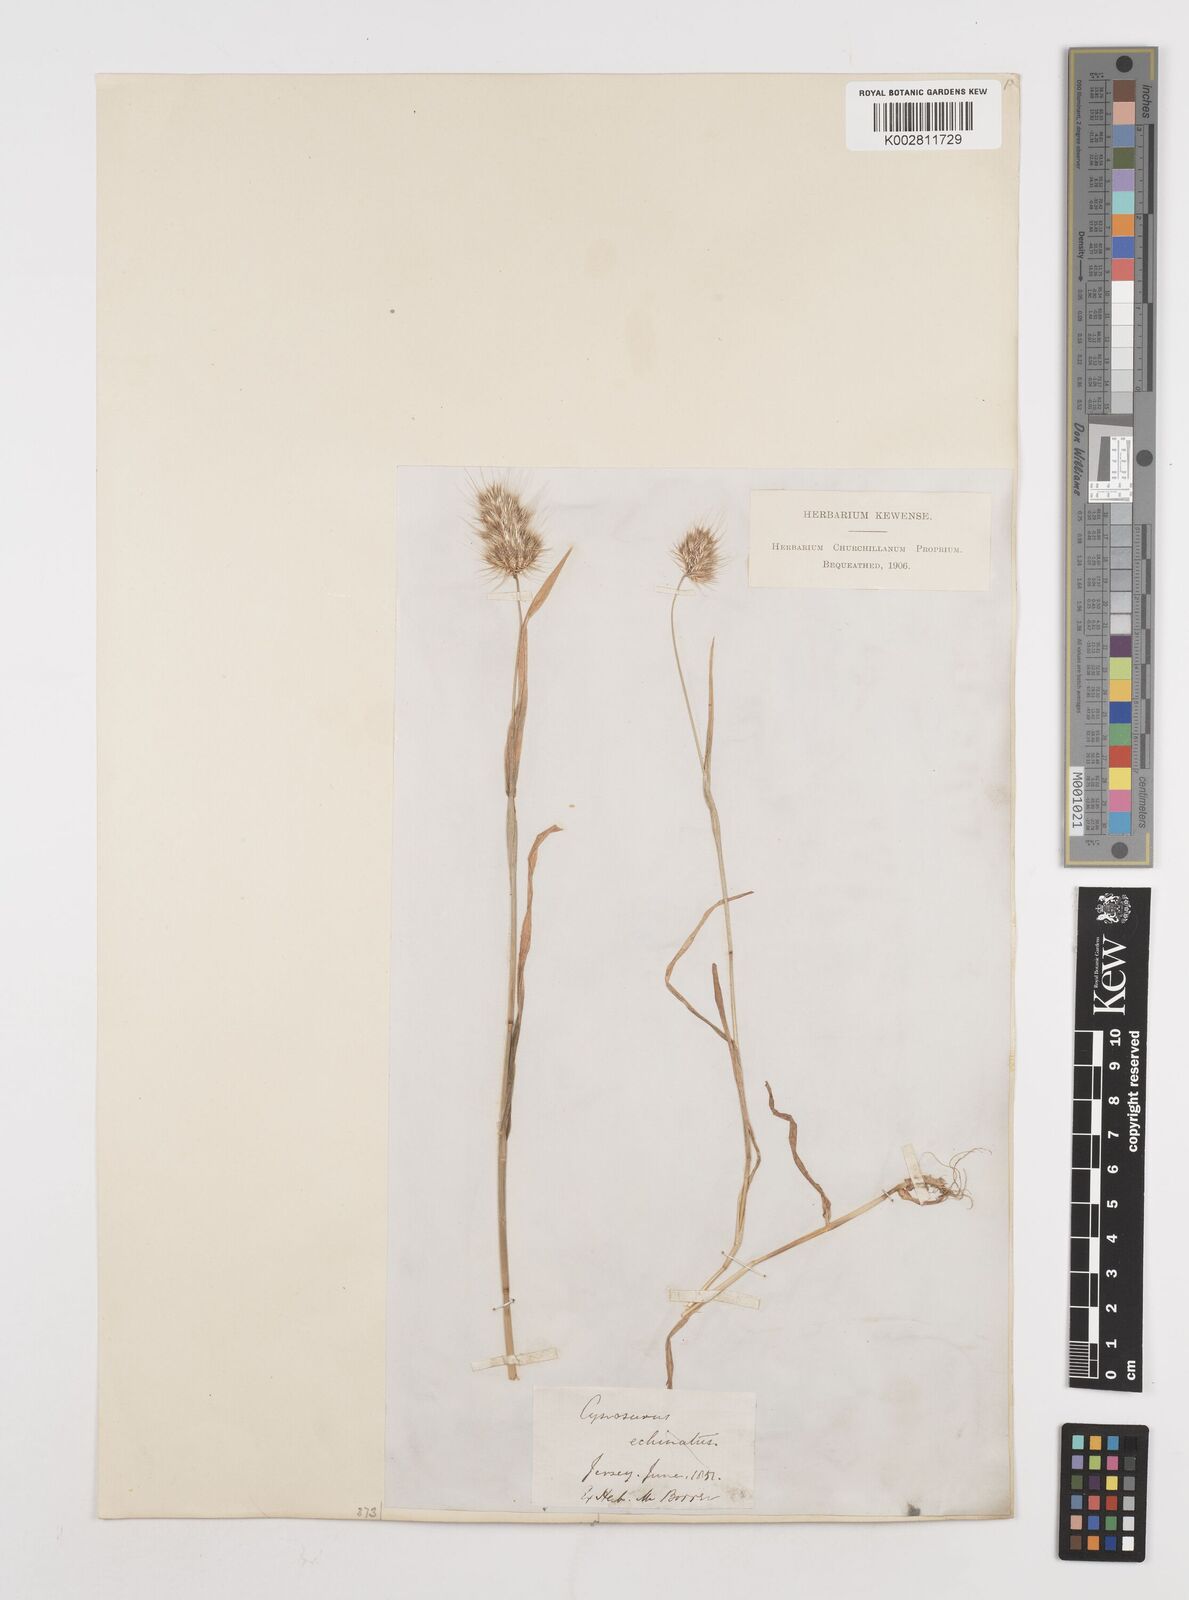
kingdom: Plantae
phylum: Tracheophyta
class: Liliopsida
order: Poales
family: Poaceae
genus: Cynosurus
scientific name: Cynosurus echinatus
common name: Rough dog's-tail
